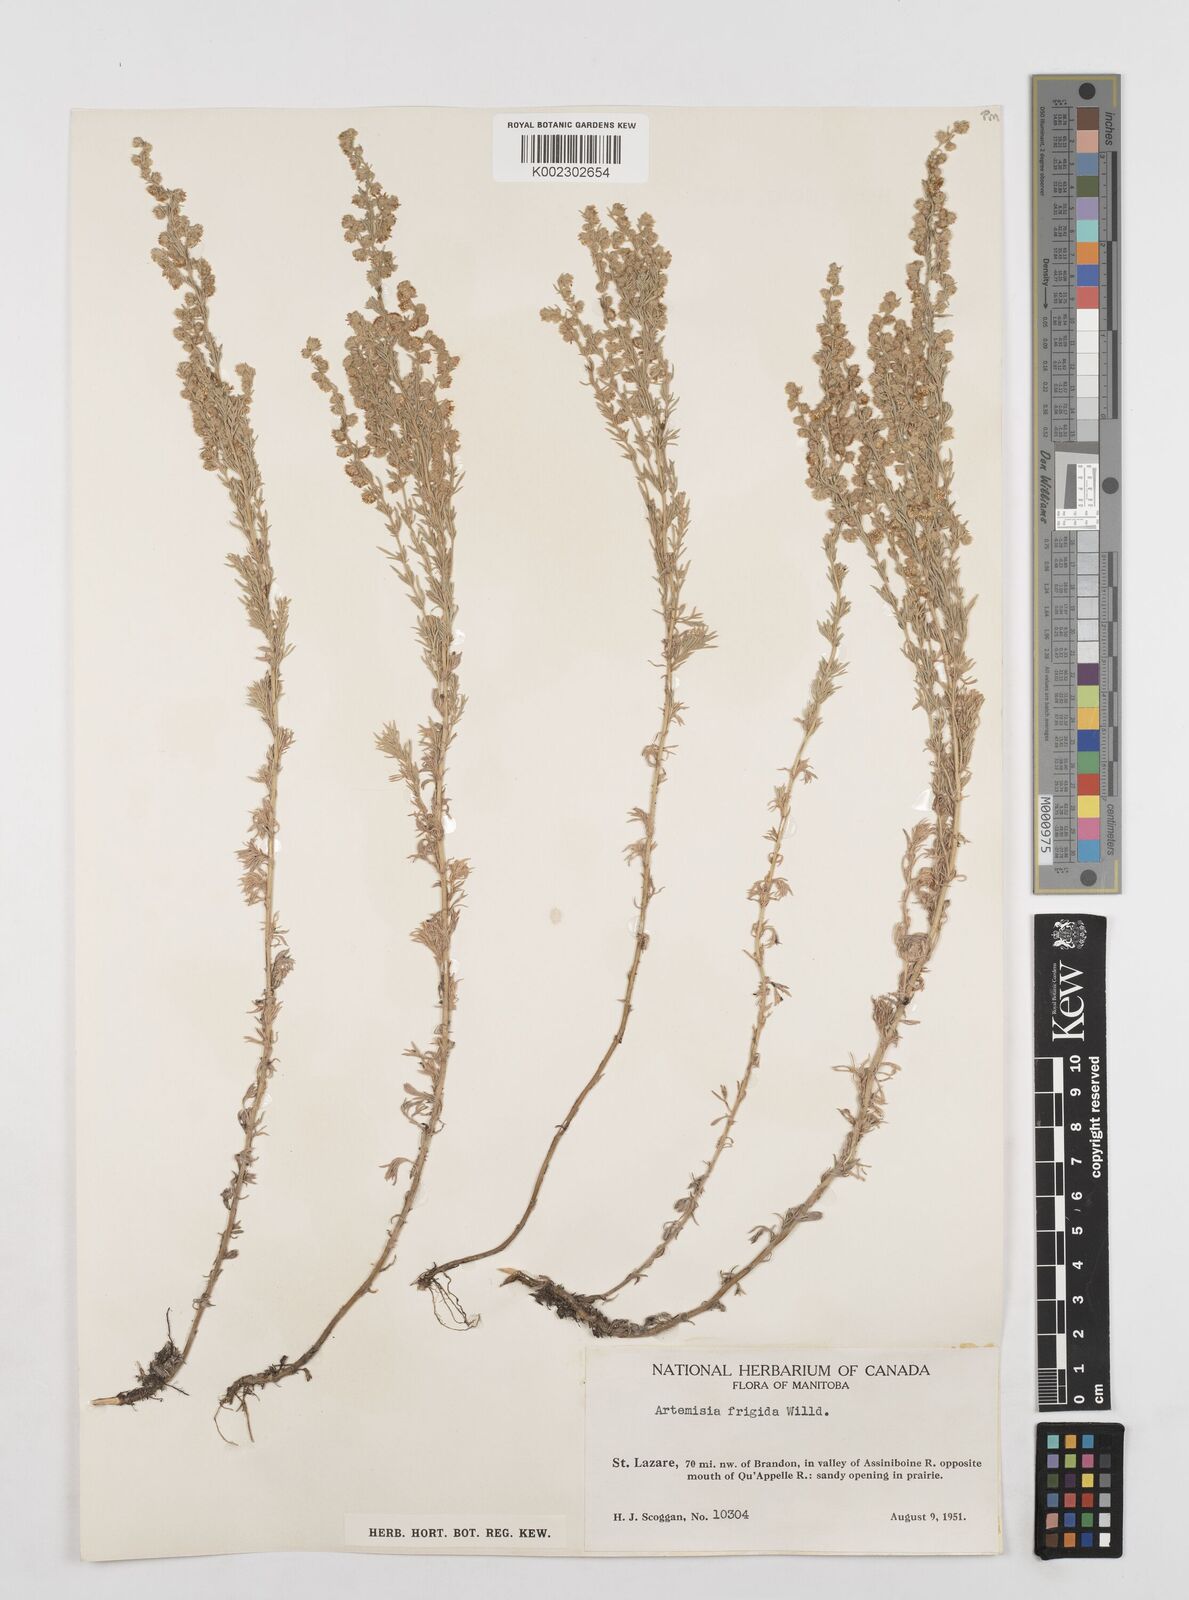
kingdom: Plantae
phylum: Tracheophyta
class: Magnoliopsida
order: Asterales
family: Asteraceae
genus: Artemisia
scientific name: Artemisia frigida
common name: Prairie sagewort
